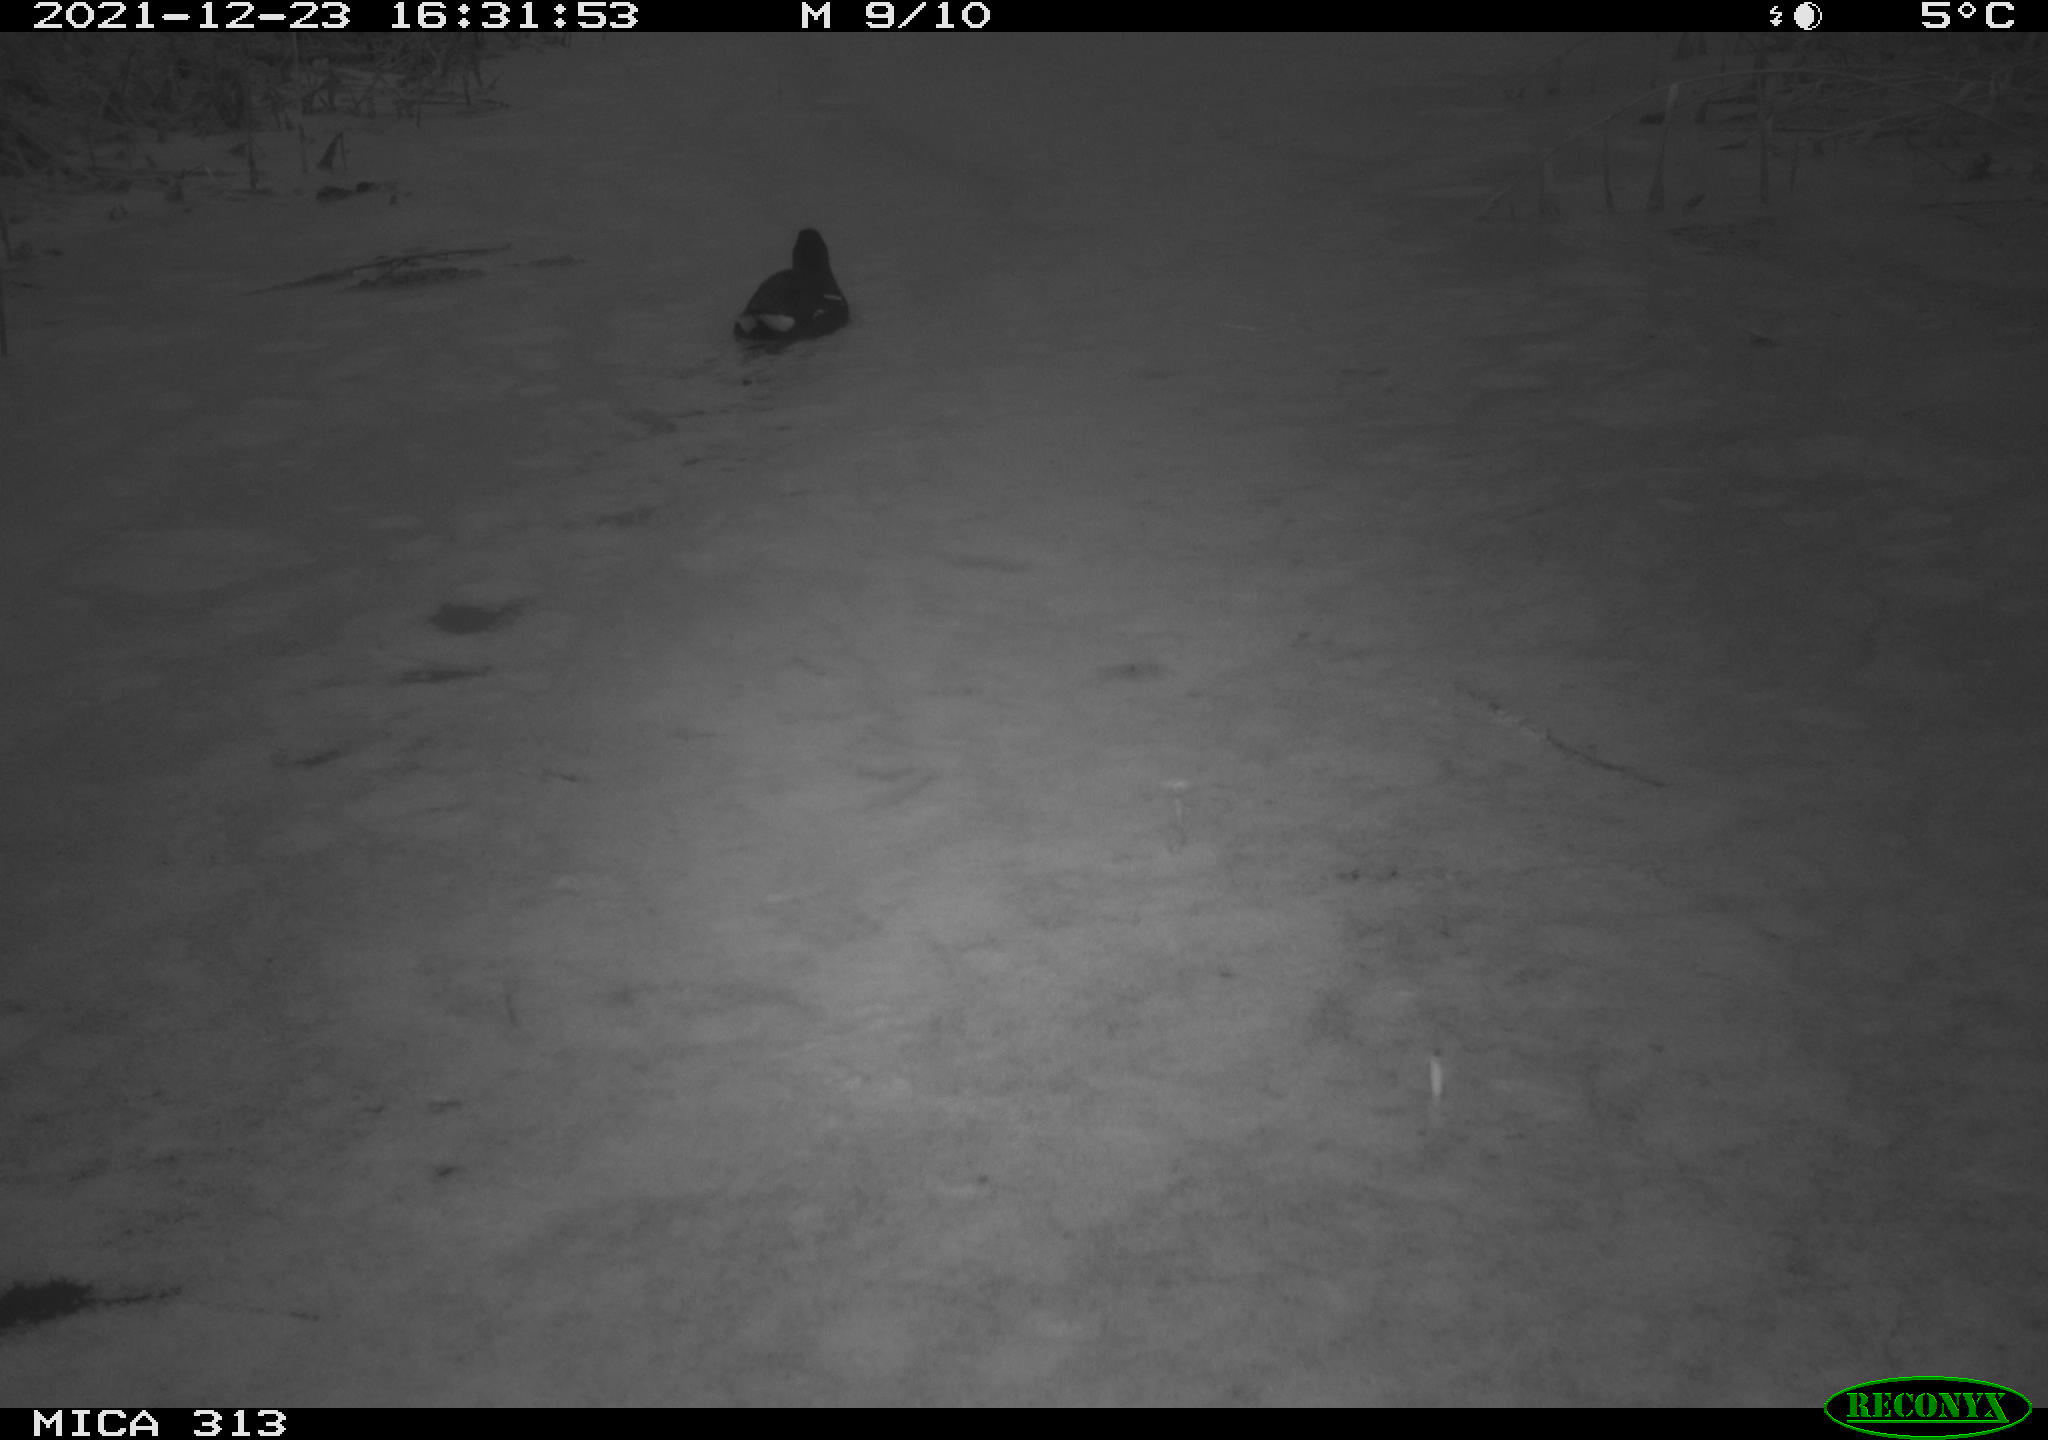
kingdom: Animalia
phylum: Chordata
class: Aves
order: Gruiformes
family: Rallidae
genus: Gallinula
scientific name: Gallinula chloropus
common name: Common moorhen
